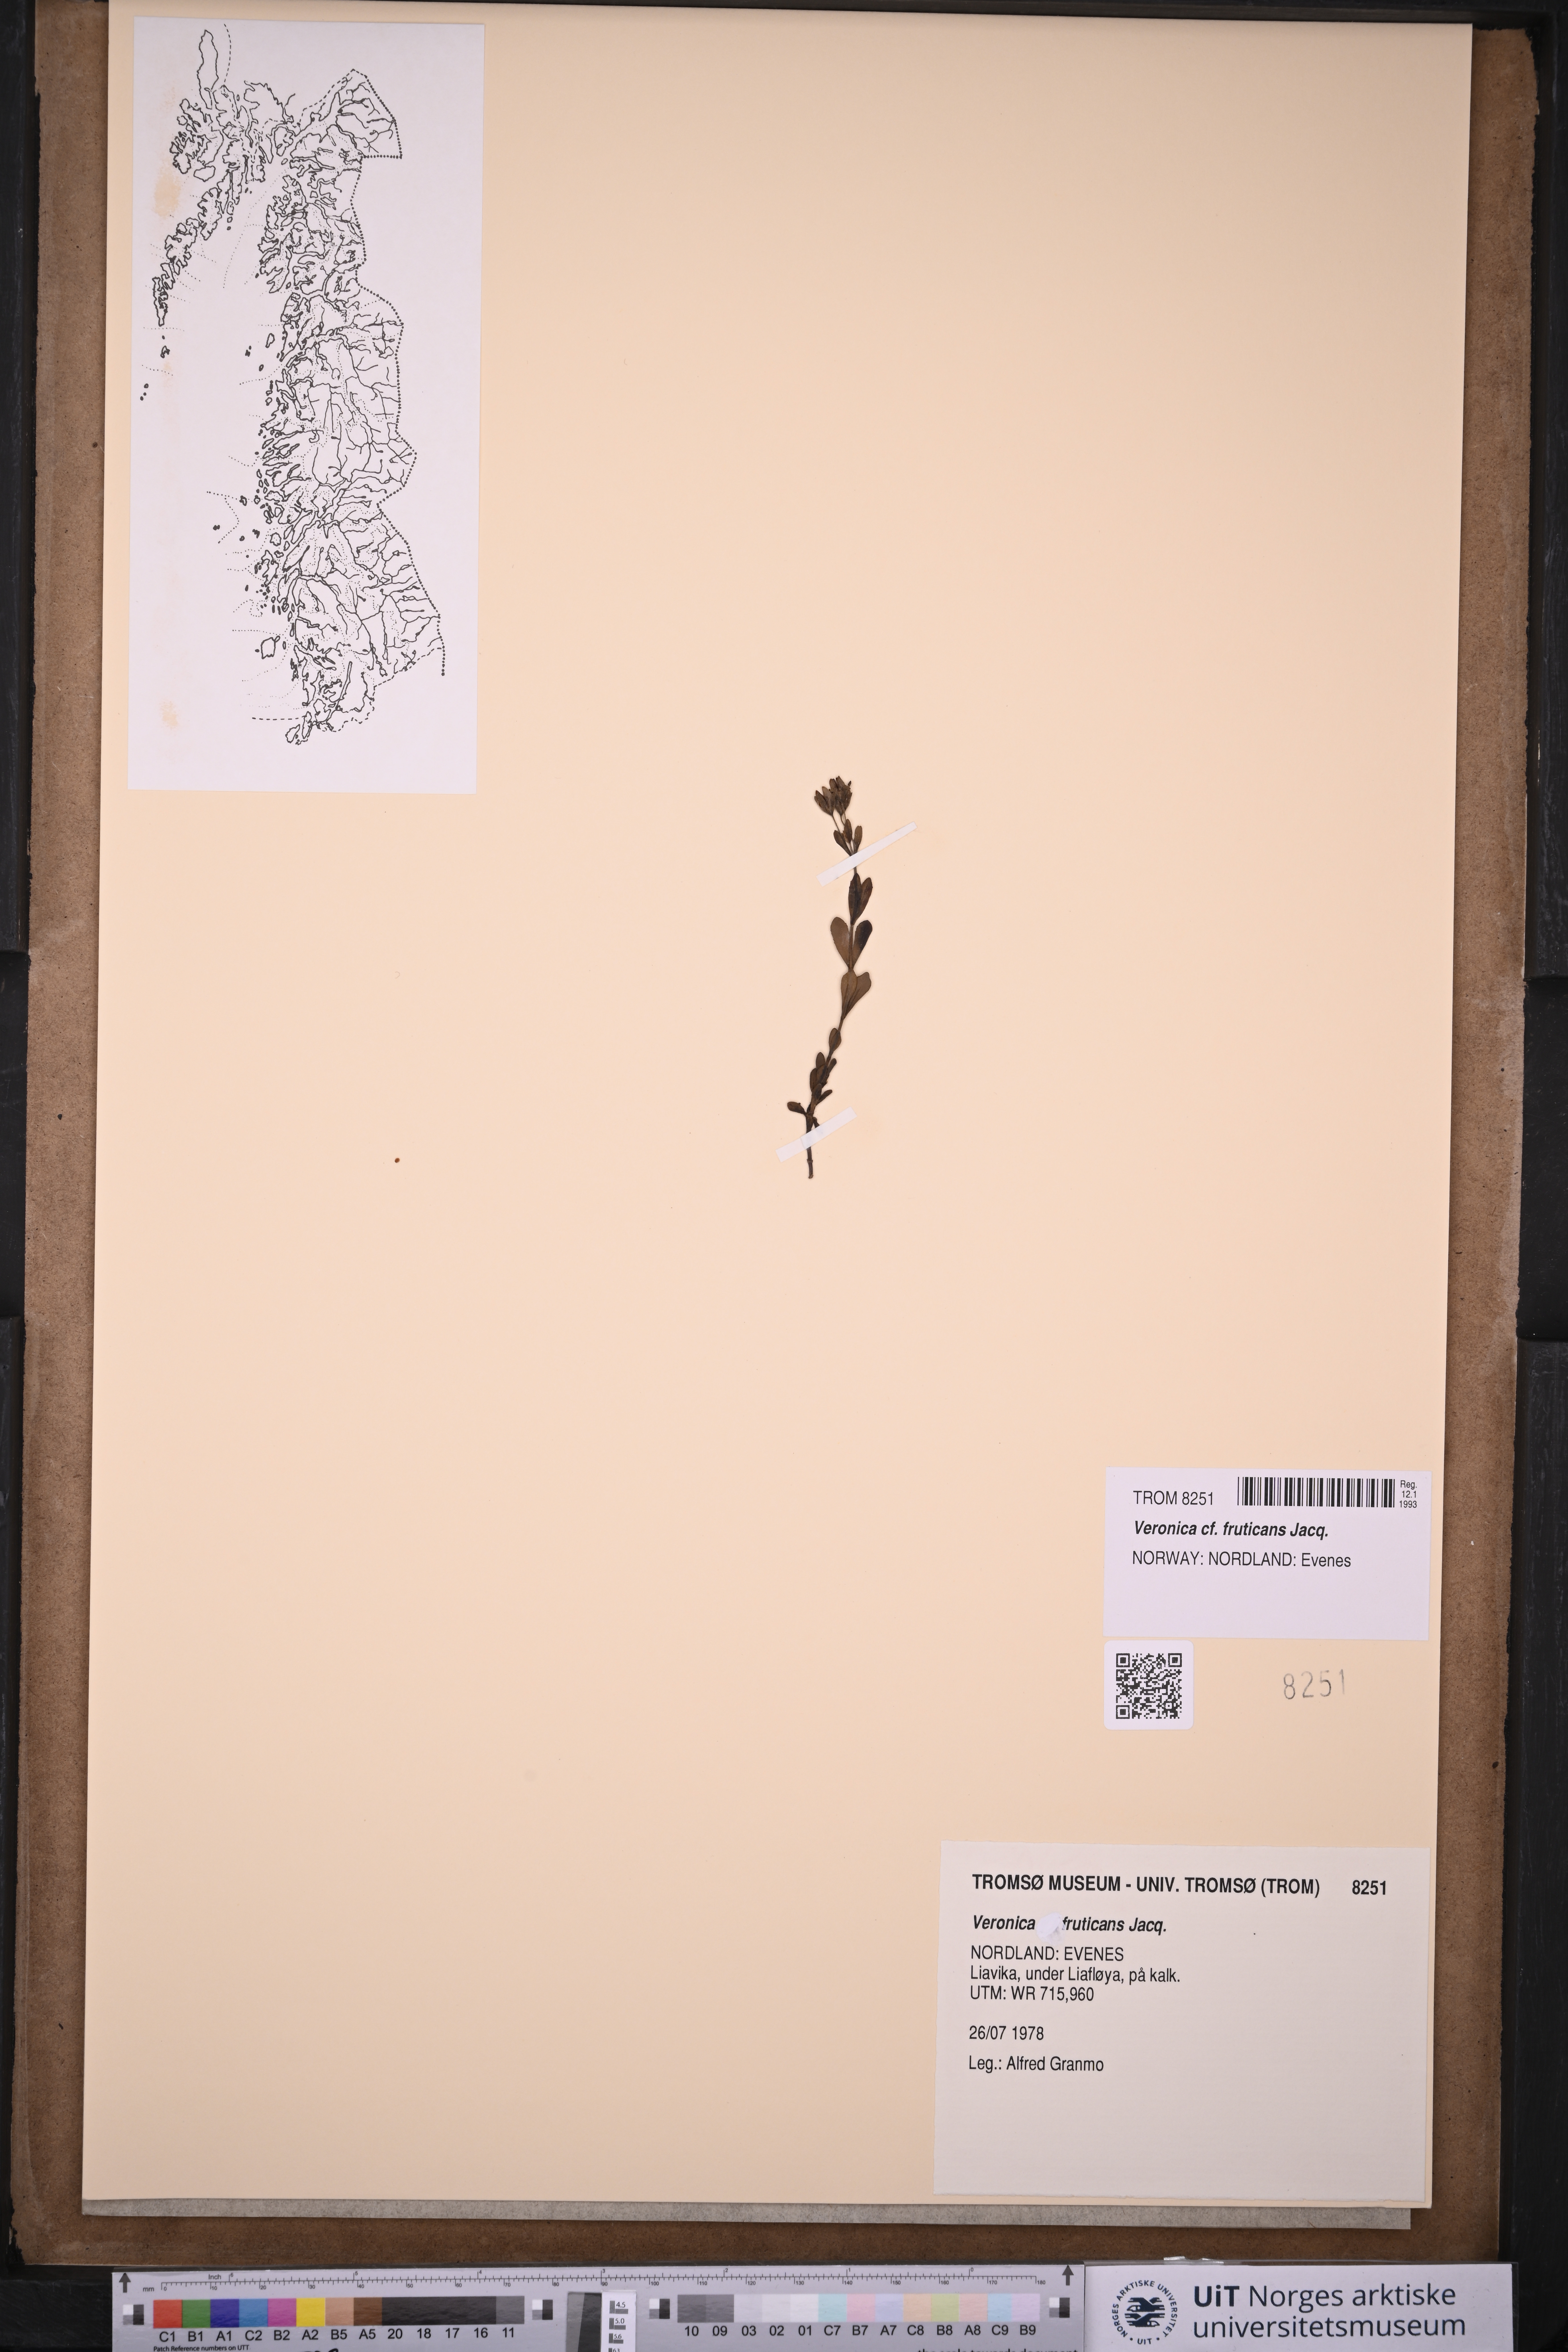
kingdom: Plantae
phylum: Tracheophyta
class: Magnoliopsida
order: Lamiales
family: Plantaginaceae
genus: Veronica
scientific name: Veronica fruticans
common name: Rock speedwell
